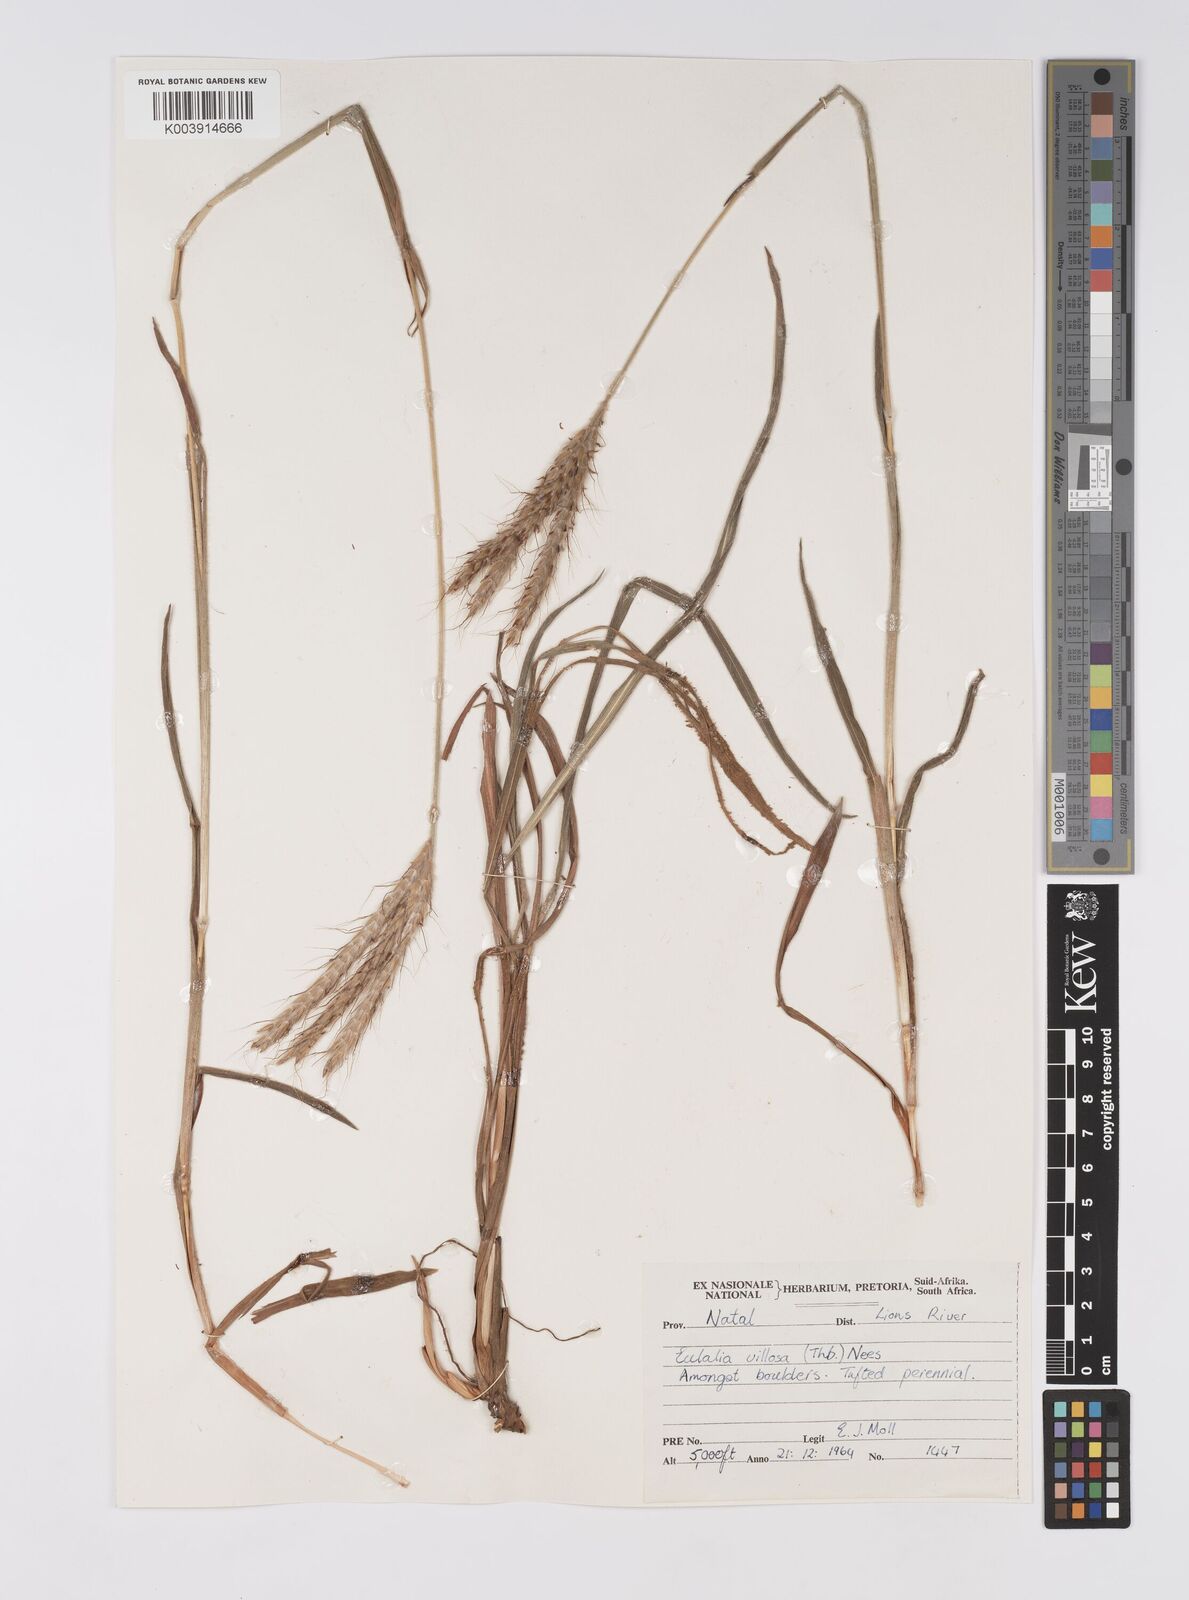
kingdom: Plantae
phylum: Tracheophyta
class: Liliopsida
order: Poales
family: Poaceae
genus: Eulalia
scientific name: Eulalia villosa
